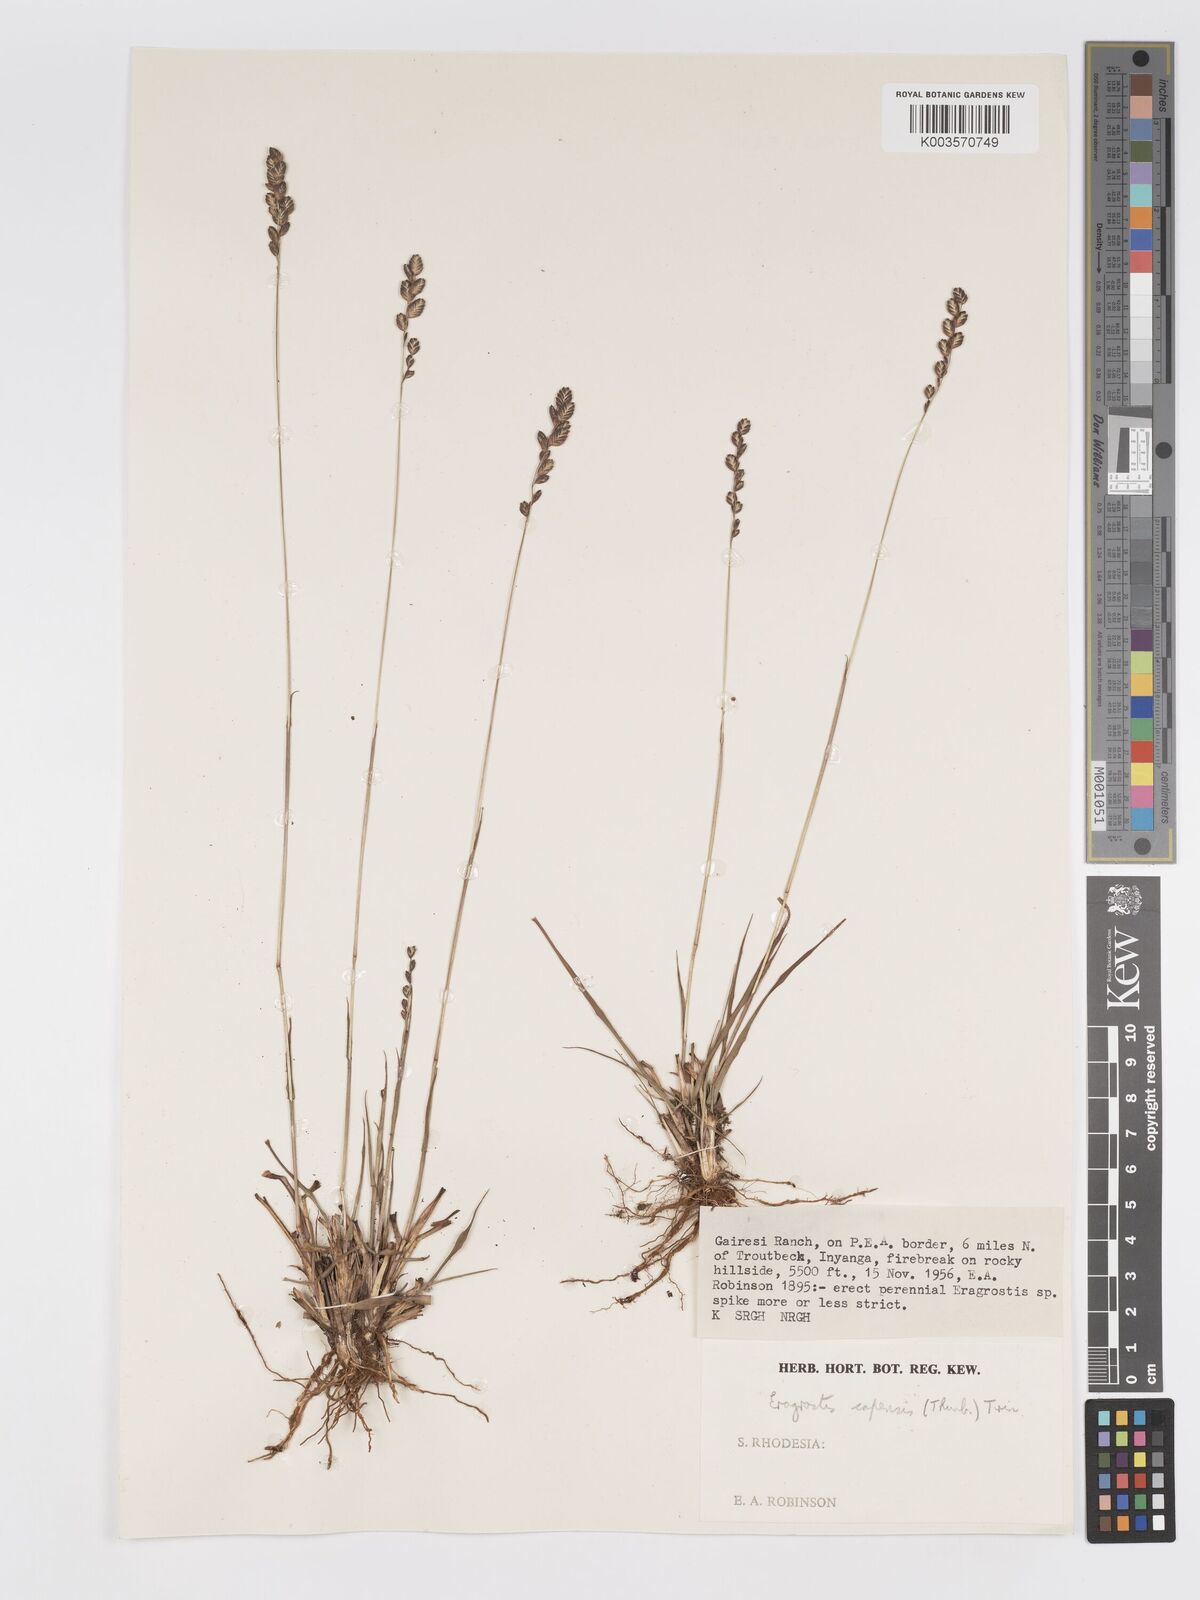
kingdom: Plantae
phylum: Tracheophyta
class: Liliopsida
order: Poales
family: Poaceae
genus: Eragrostis
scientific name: Eragrostis capensis
